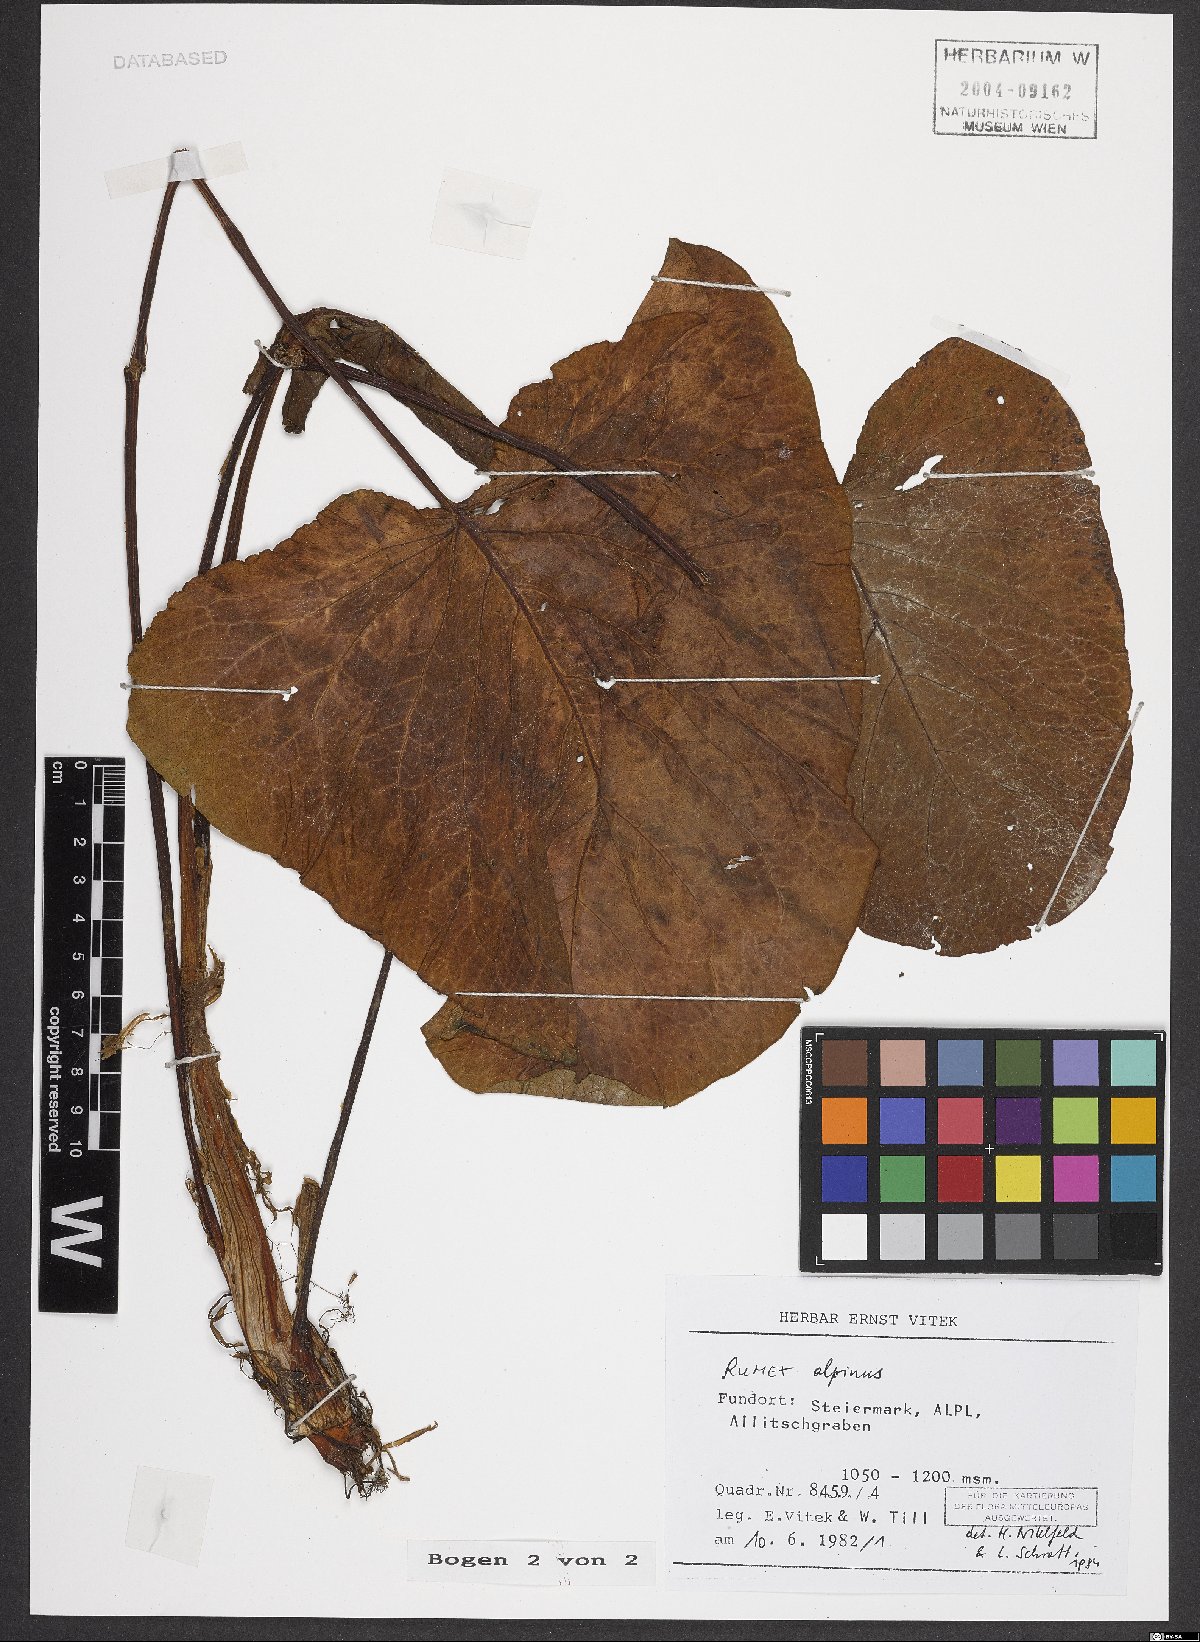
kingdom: Plantae
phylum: Tracheophyta
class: Magnoliopsida
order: Caryophyllales
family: Polygonaceae
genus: Rumex
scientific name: Rumex alpinus
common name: Alpine dock
